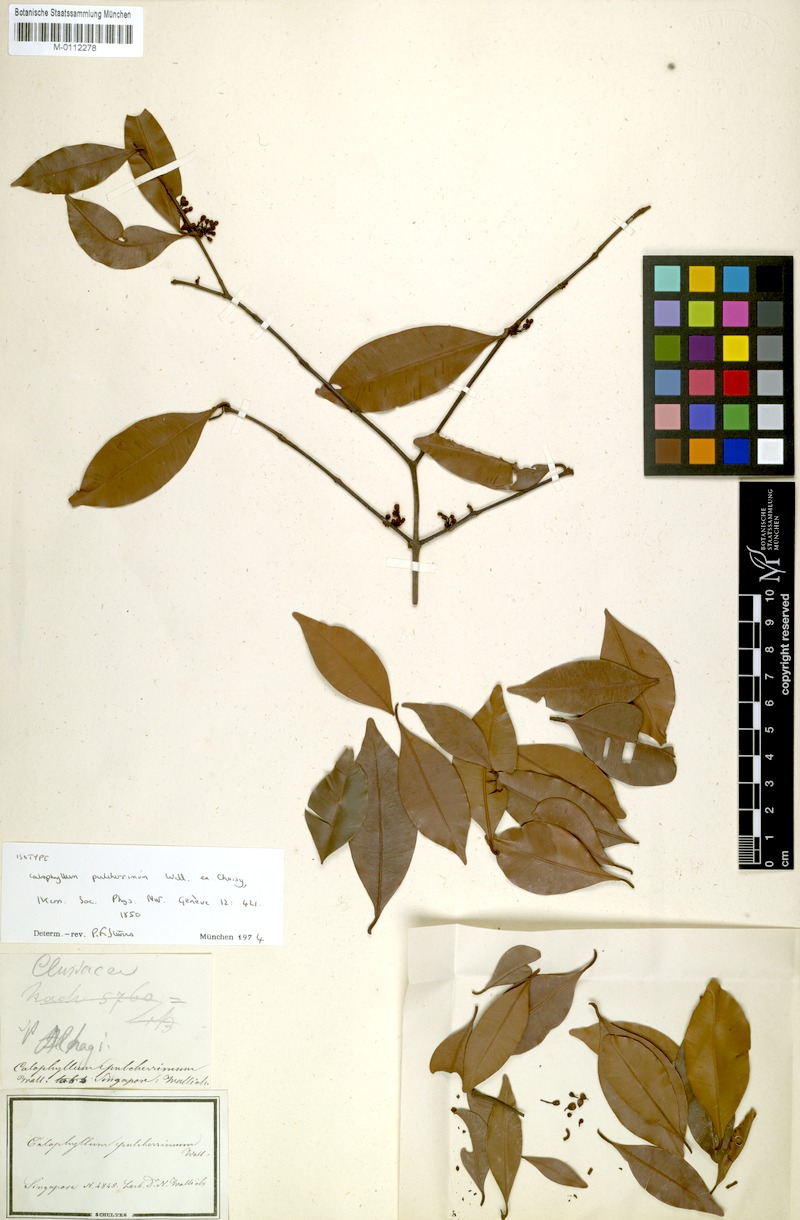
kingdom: Plantae
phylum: Tracheophyta
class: Magnoliopsida
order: Malpighiales
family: Calophyllaceae
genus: Calophyllum
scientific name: Calophyllum pulcherrimum
